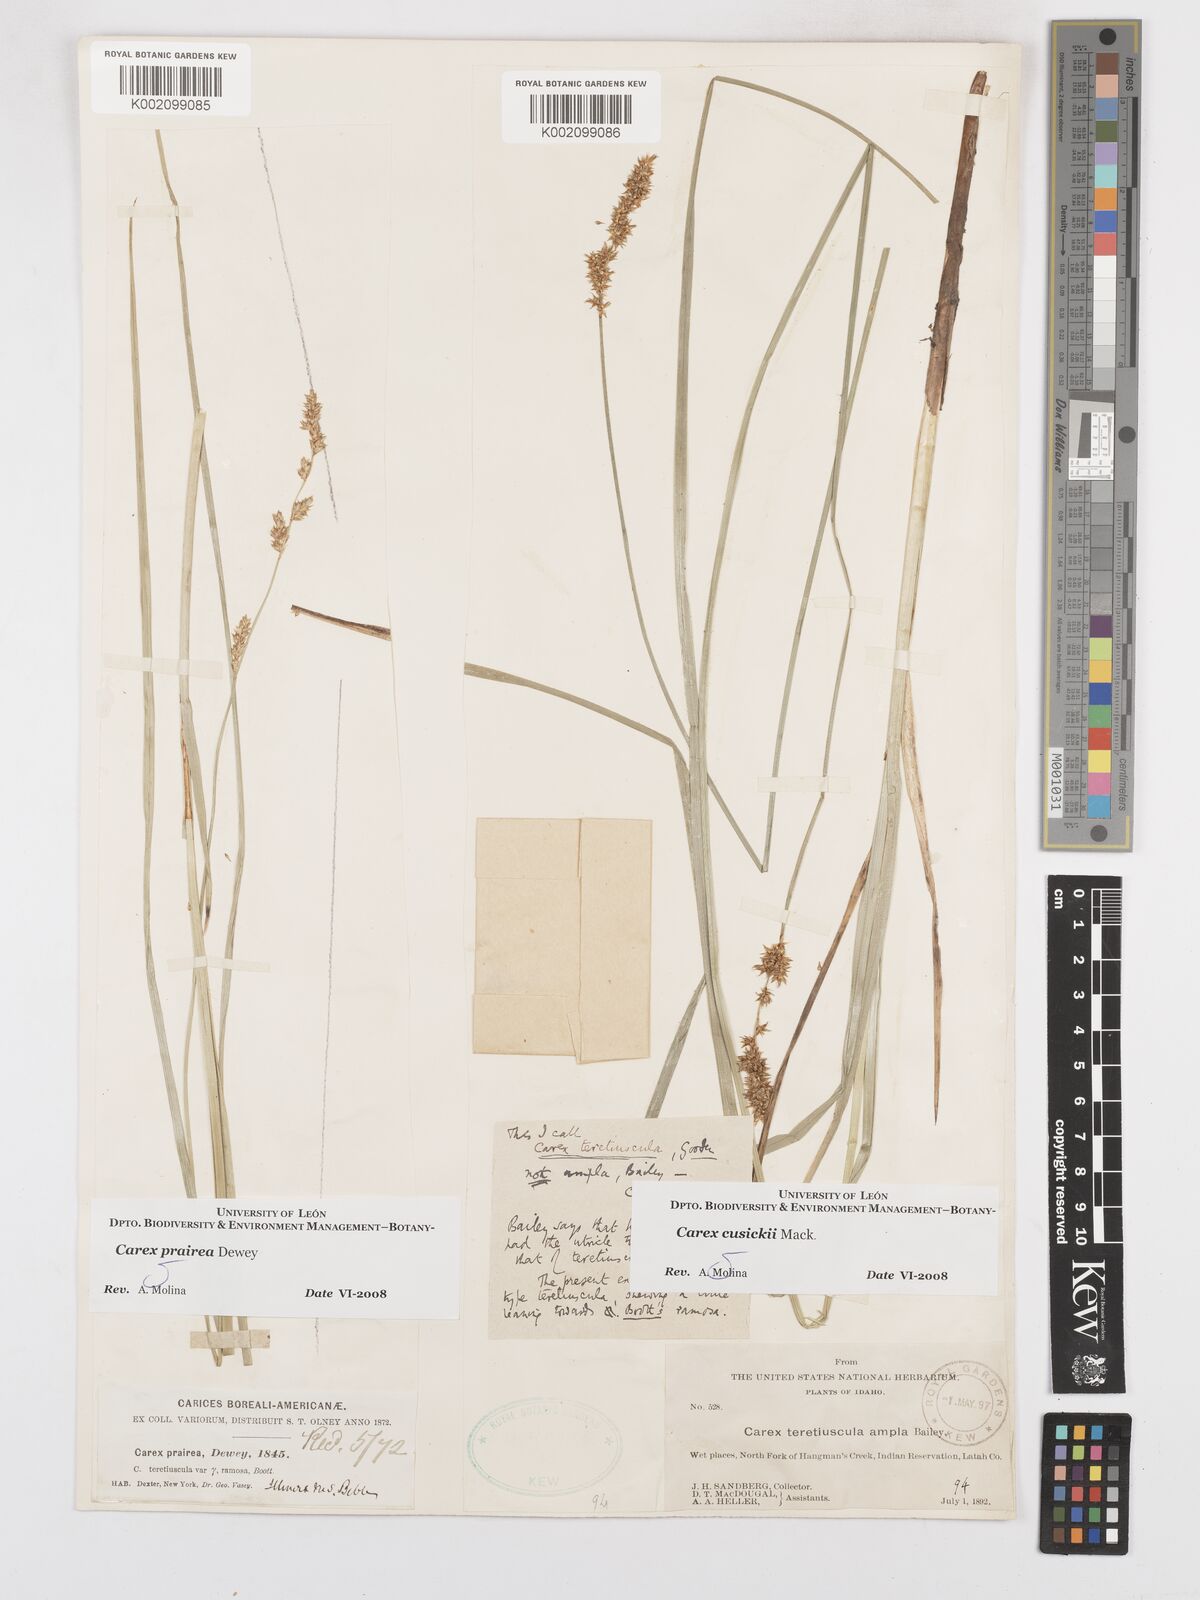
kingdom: Plantae
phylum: Tracheophyta
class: Liliopsida
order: Poales
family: Cyperaceae
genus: Carex
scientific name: Carex prairea
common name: Prairie sedge
